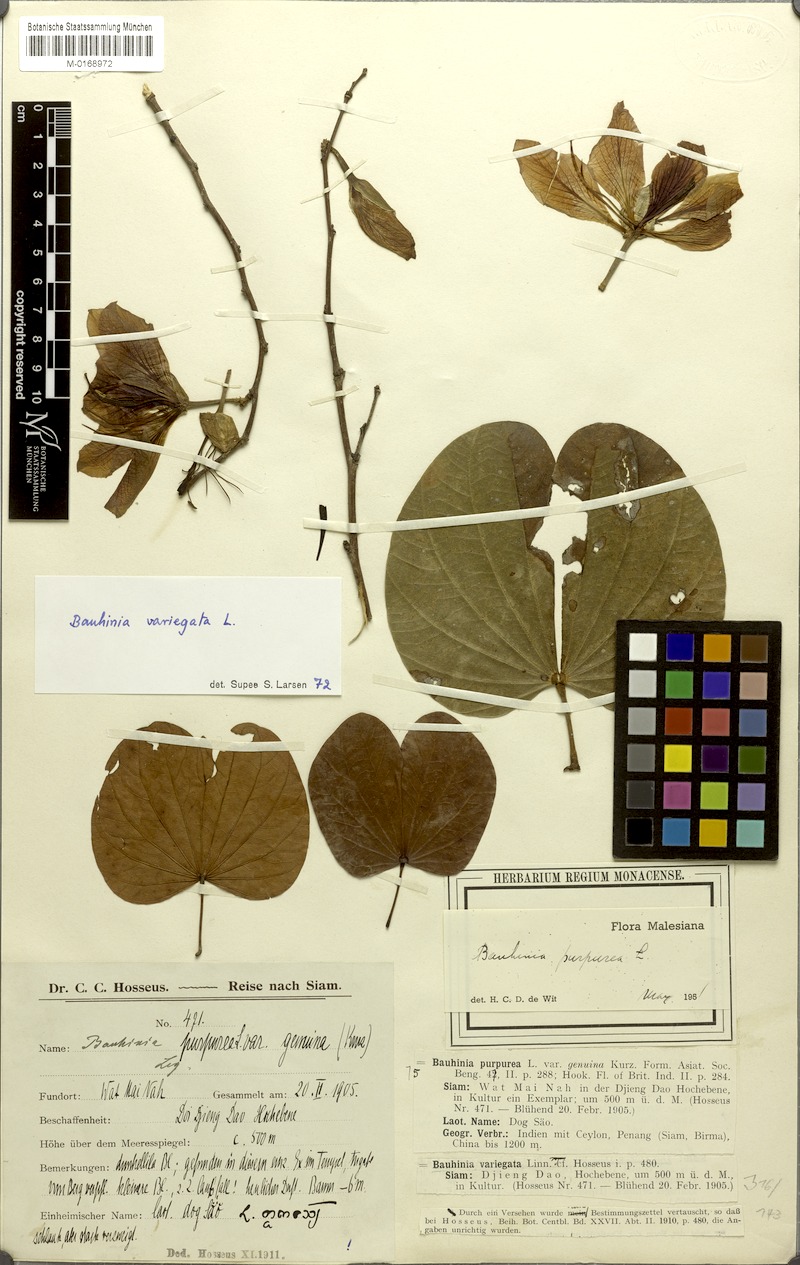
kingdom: Plantae
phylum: Tracheophyta
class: Magnoliopsida
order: Fabales
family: Fabaceae
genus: Bauhinia
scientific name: Bauhinia variegata
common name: Mountain ebony
